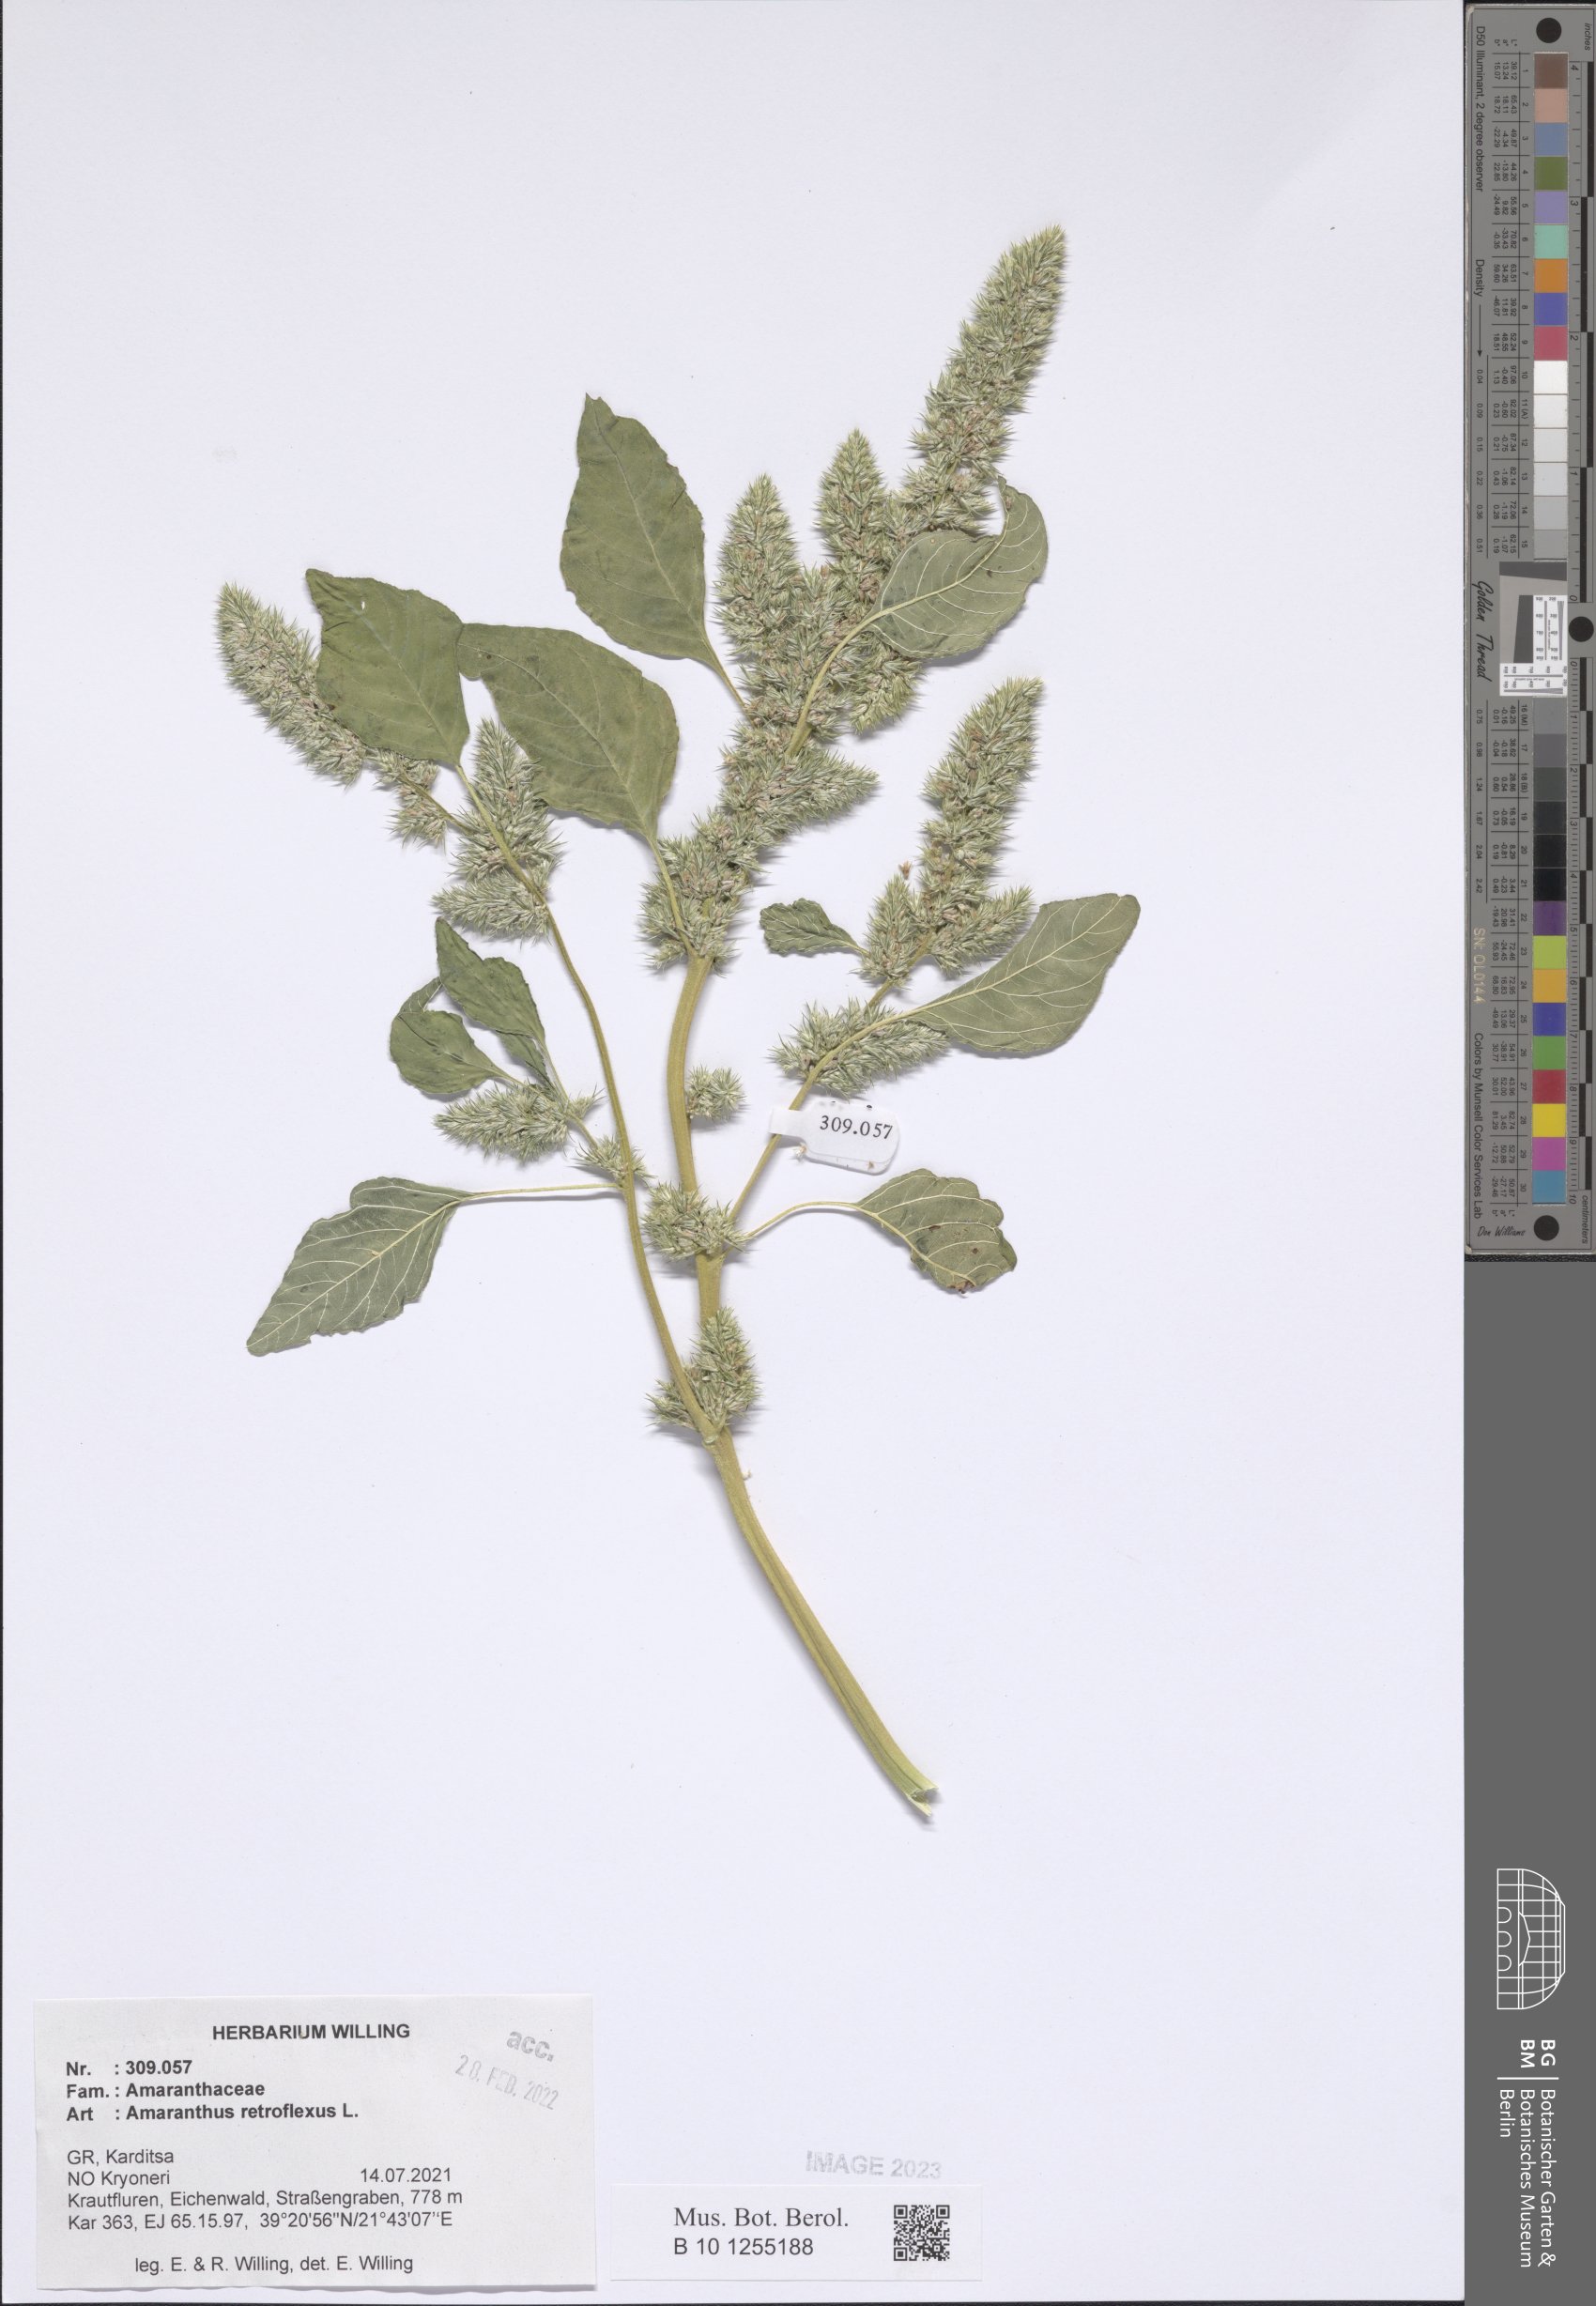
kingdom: Plantae
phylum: Tracheophyta
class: Magnoliopsida
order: Caryophyllales
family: Amaranthaceae
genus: Amaranthus
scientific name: Amaranthus retroflexus
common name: Redroot amaranth
